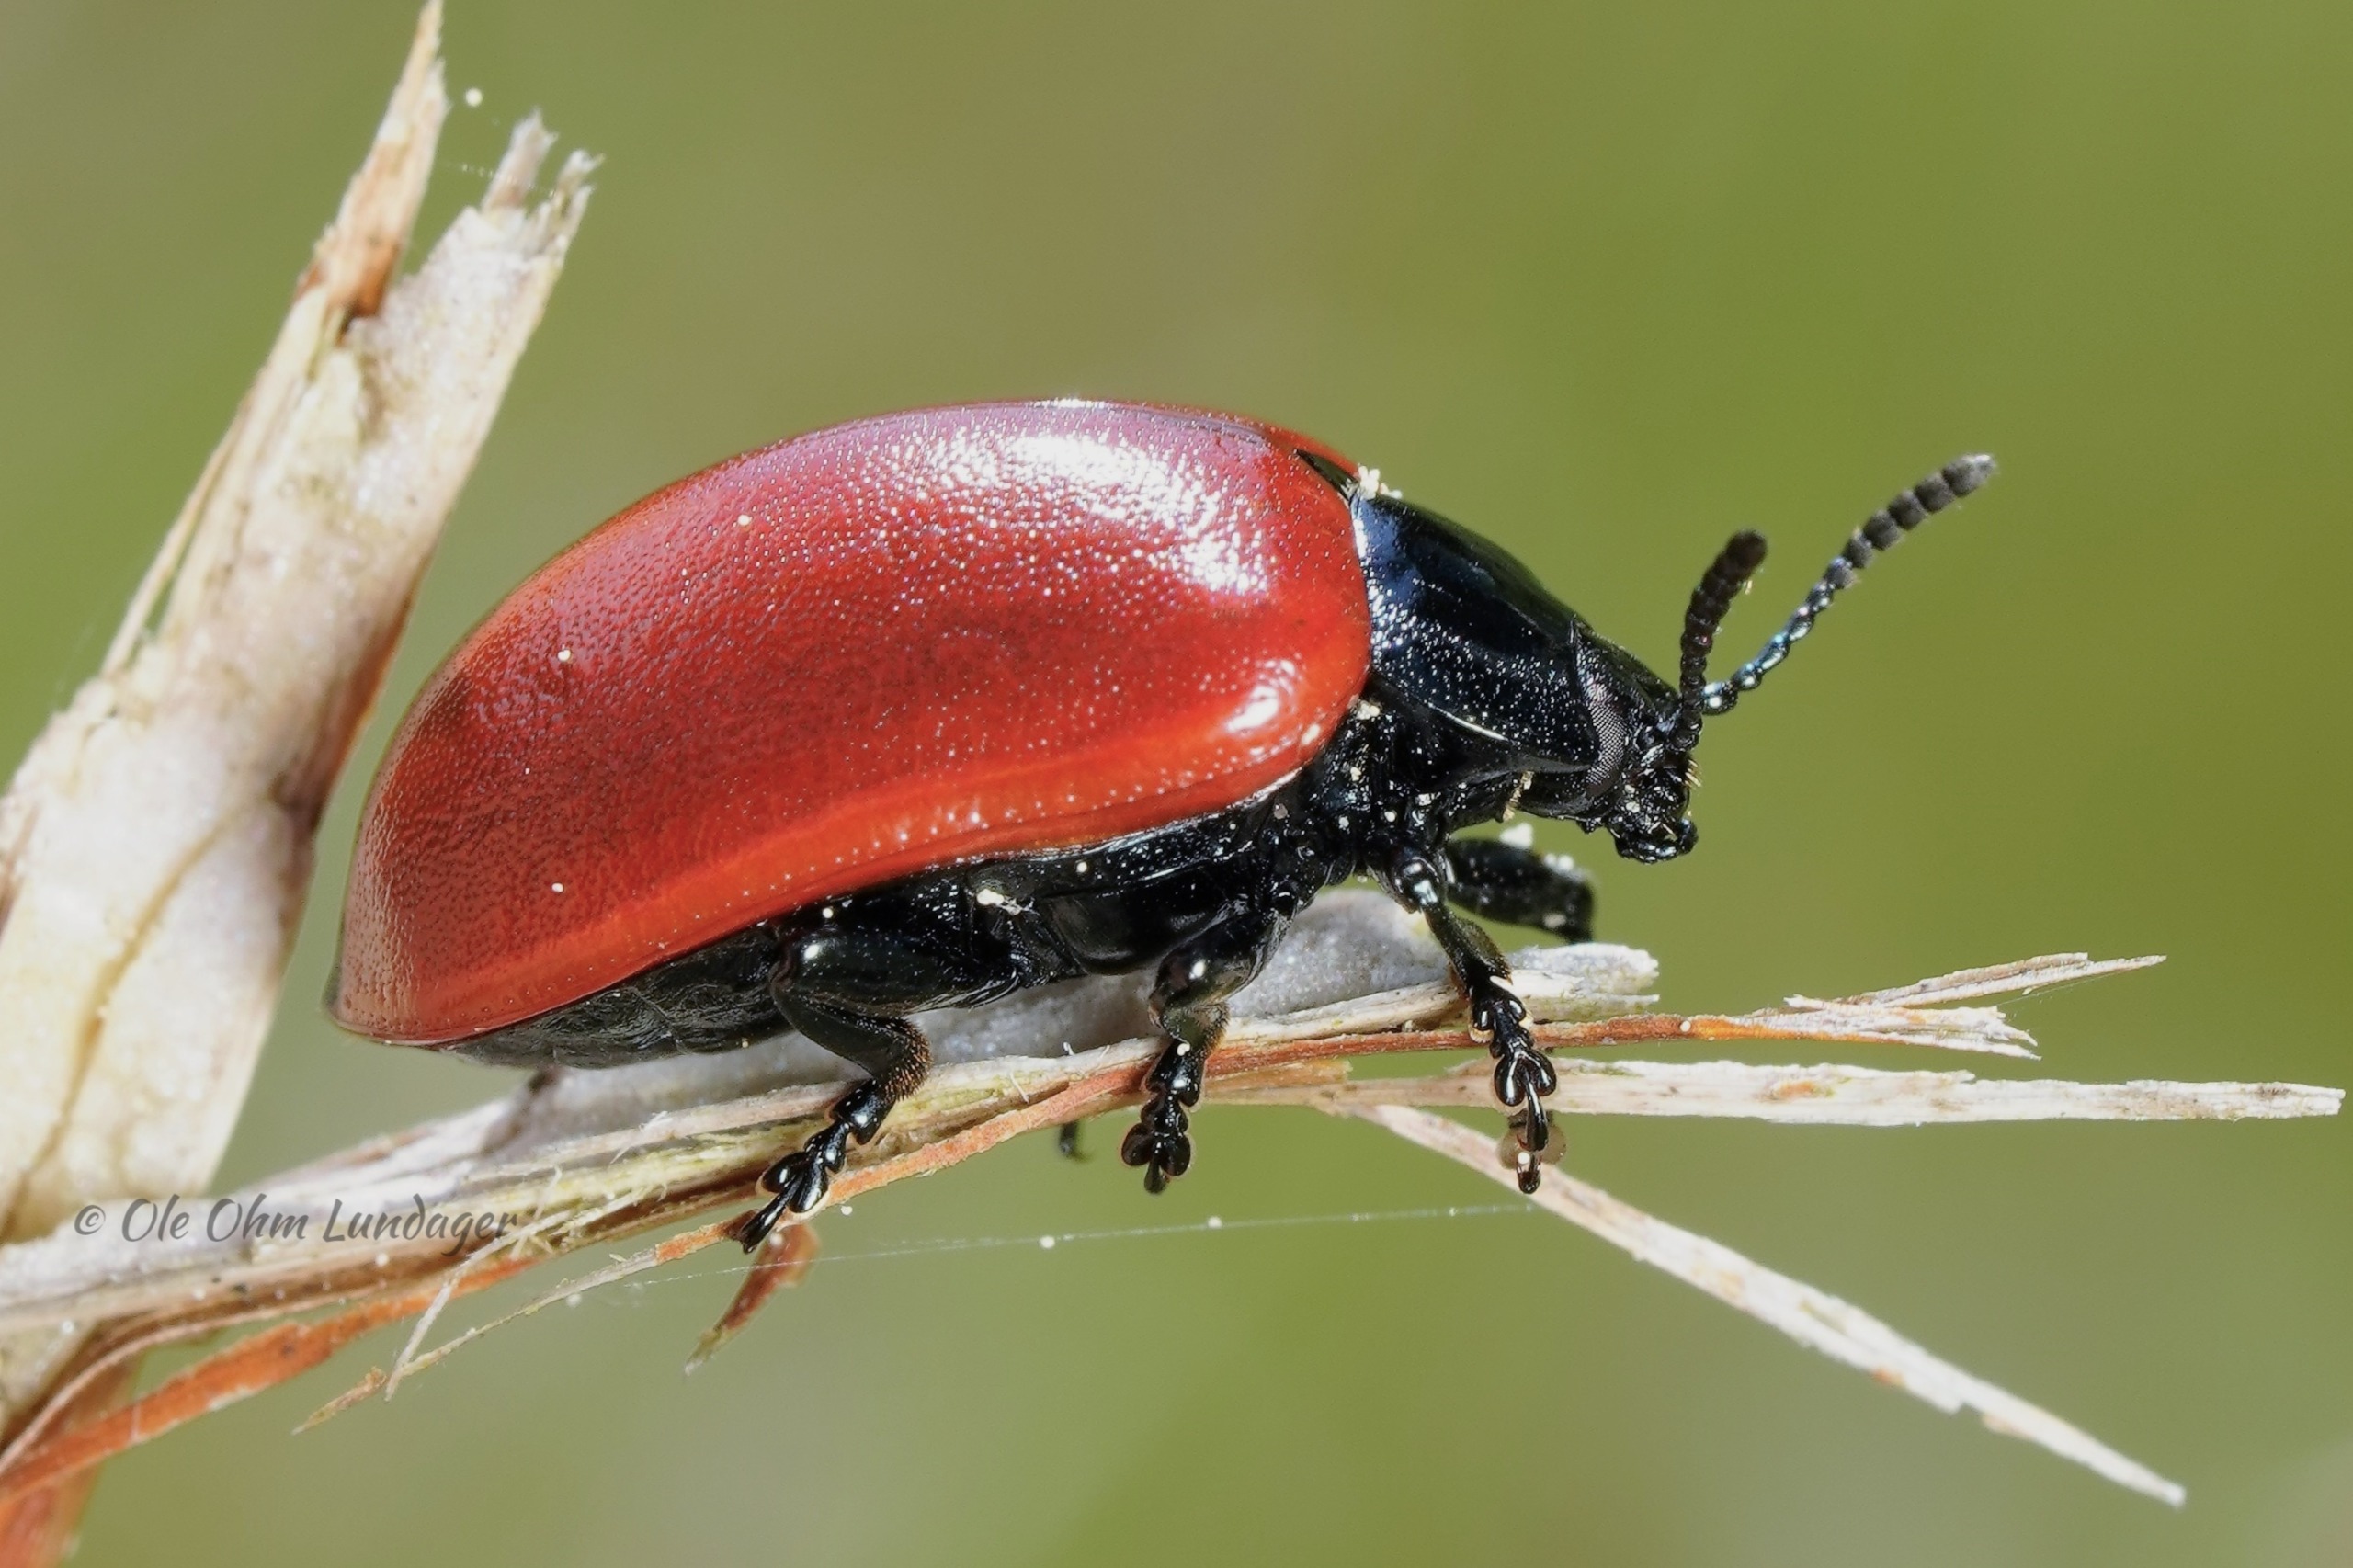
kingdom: Animalia
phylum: Arthropoda
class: Insecta
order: Coleoptera
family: Chrysomelidae
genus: Chrysomela
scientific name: Chrysomela populi
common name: Poppelbladbille
